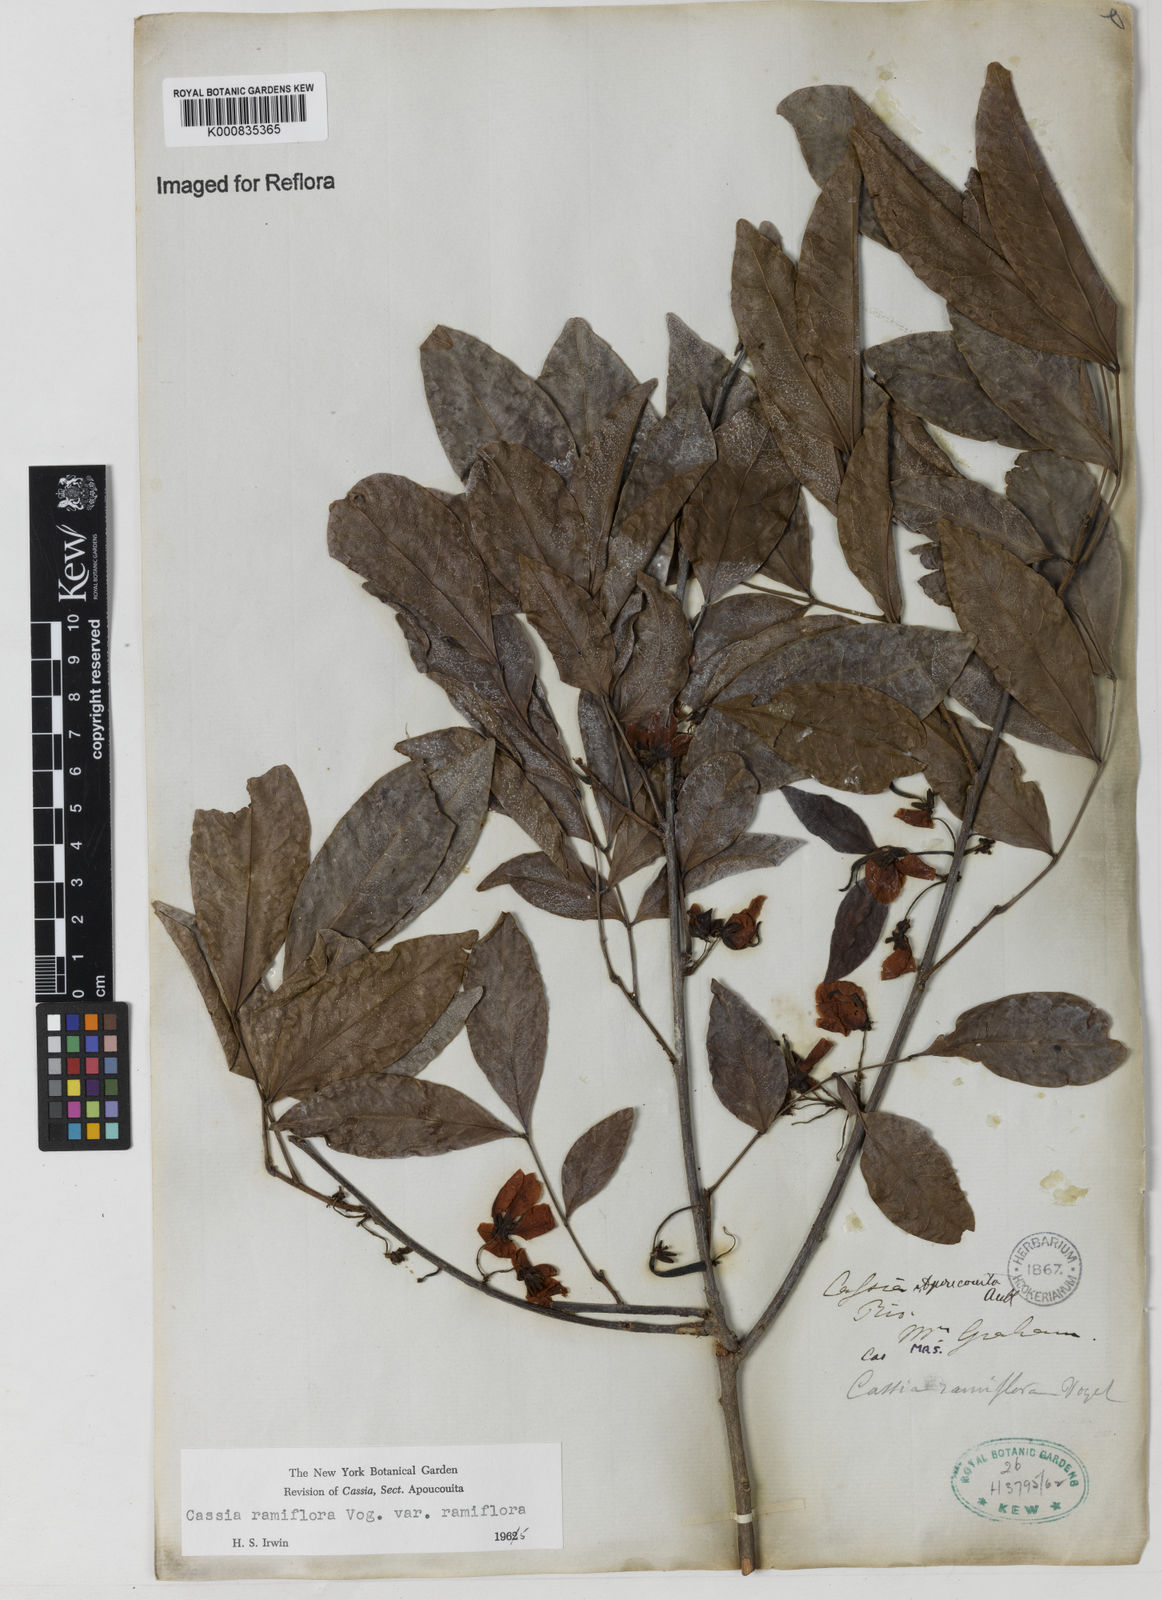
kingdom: Plantae
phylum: Tracheophyta
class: Magnoliopsida
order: Fabales
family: Fabaceae
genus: Chamaecrista
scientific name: Chamaecrista ensiformis
